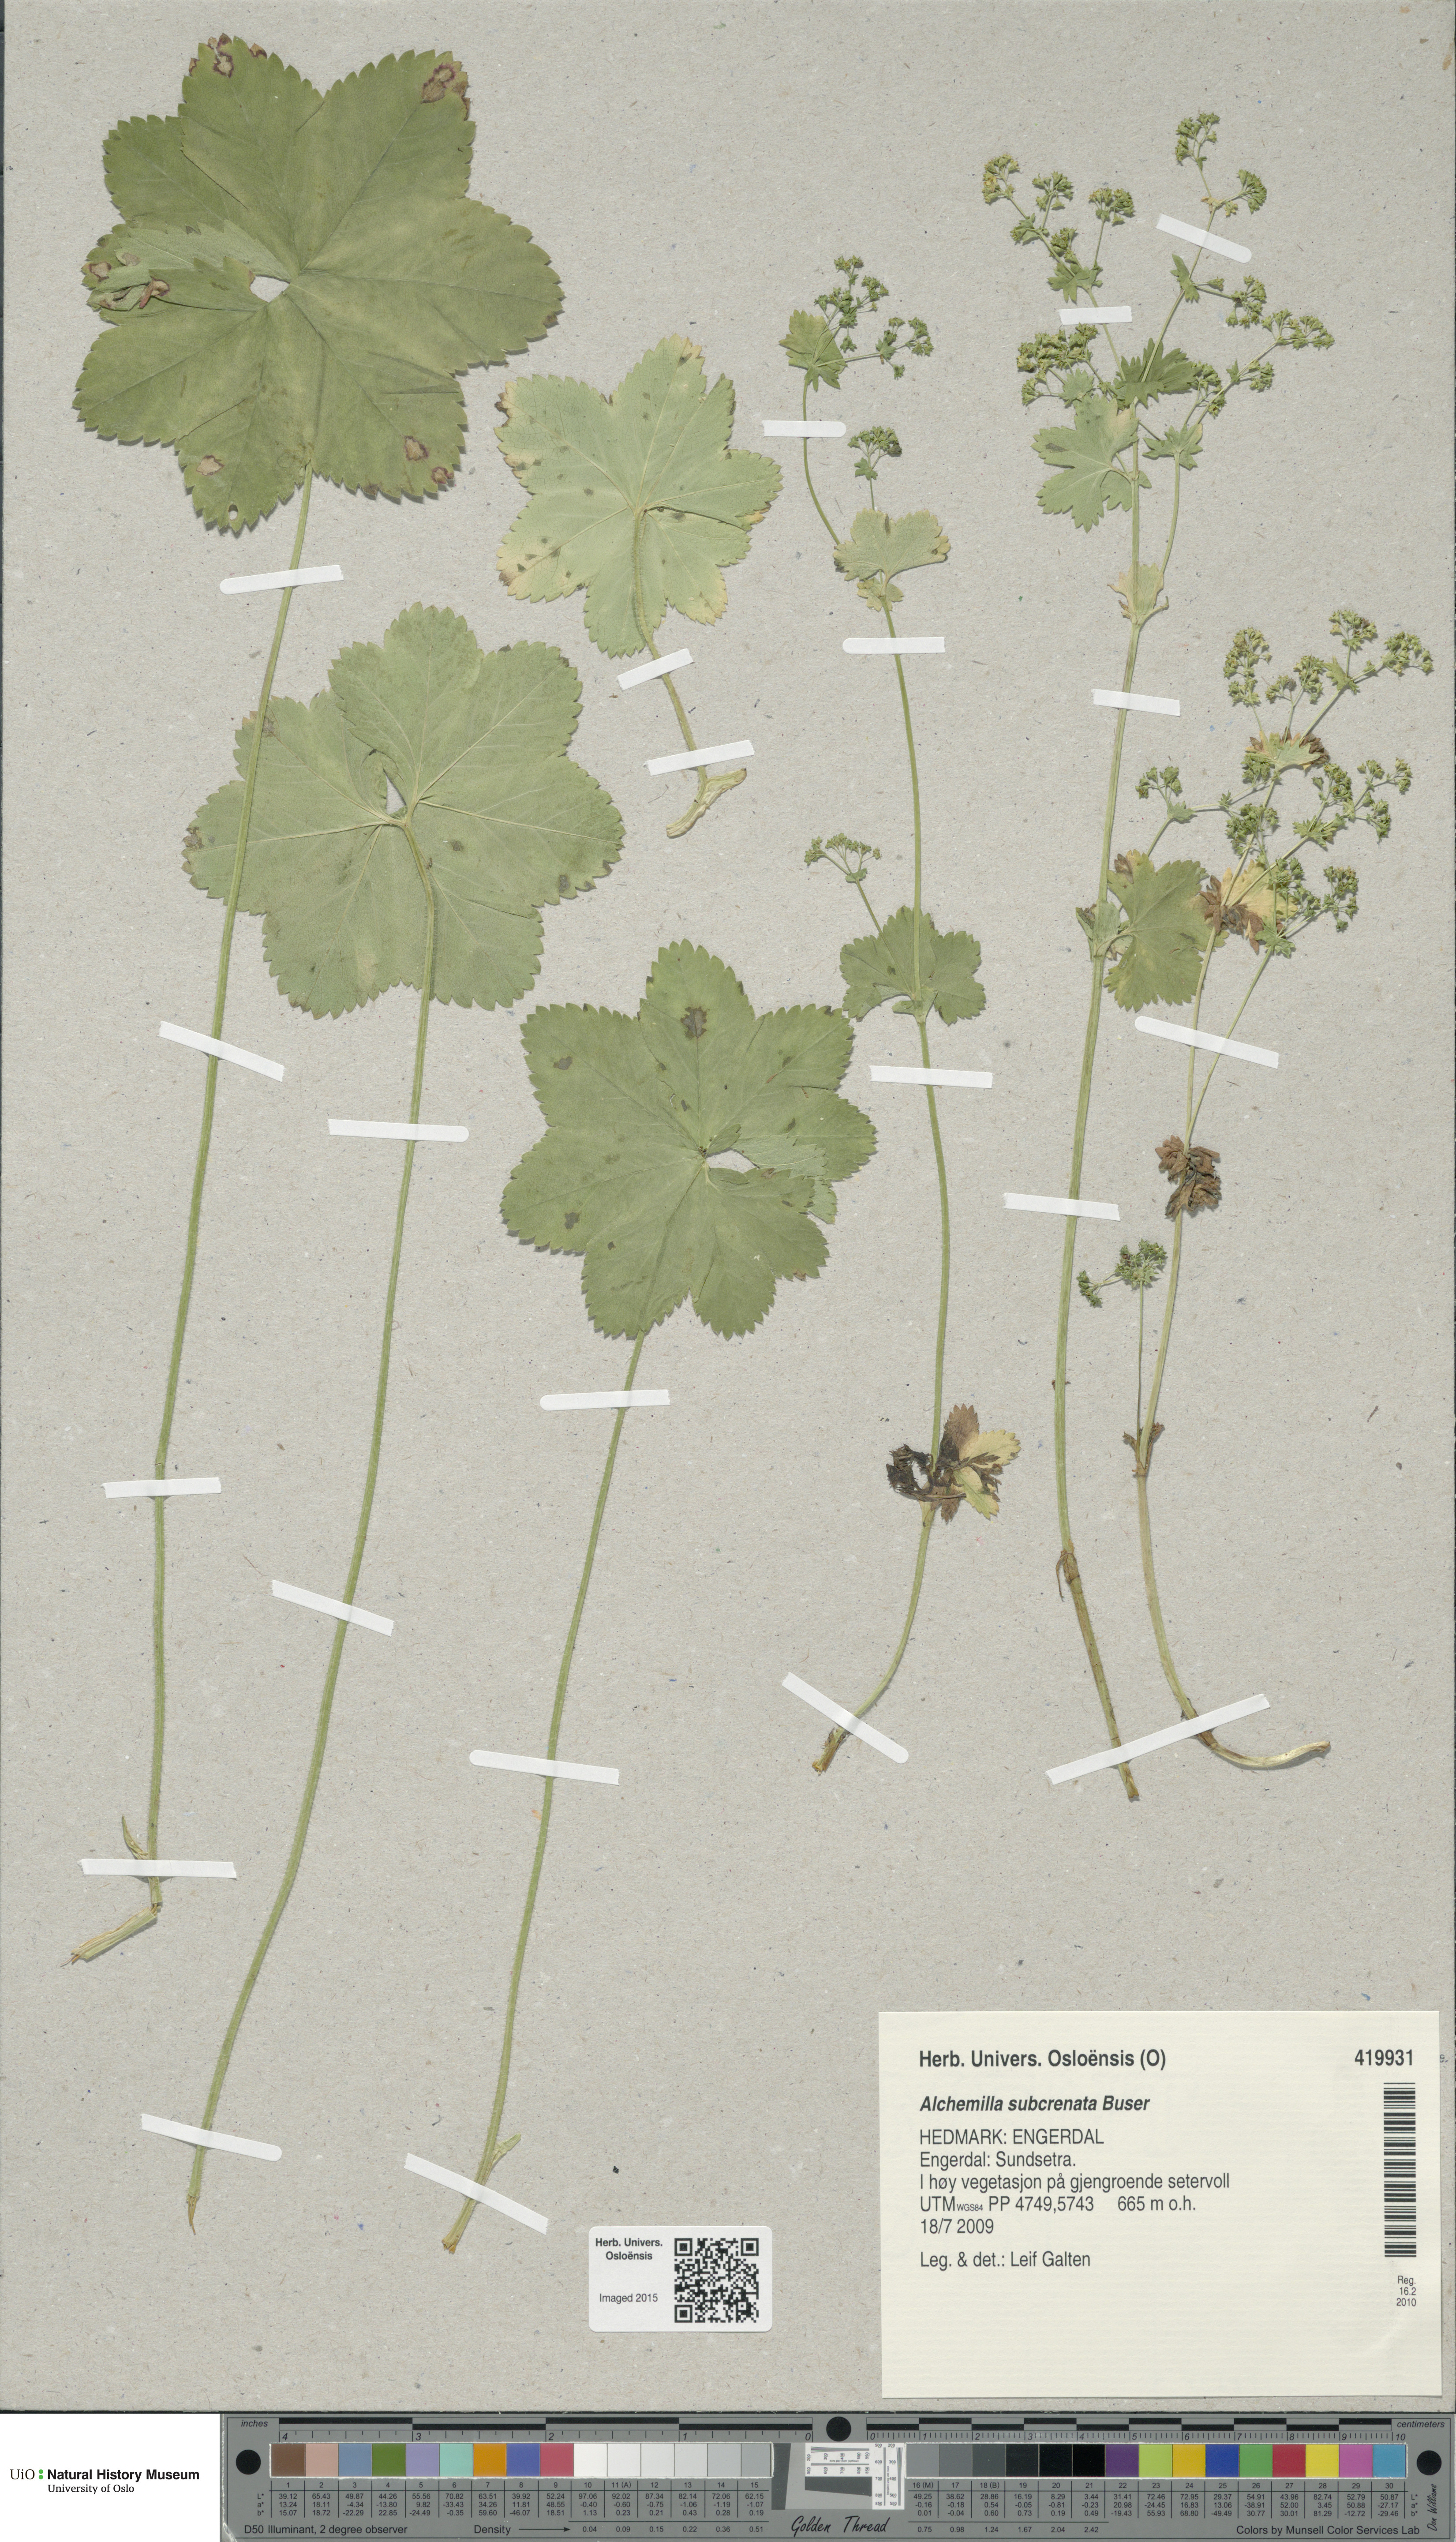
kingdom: Plantae
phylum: Tracheophyta
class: Magnoliopsida
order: Rosales
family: Rosaceae
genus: Alchemilla
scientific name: Alchemilla subcrenata
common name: Broadtooth lady's mantle
